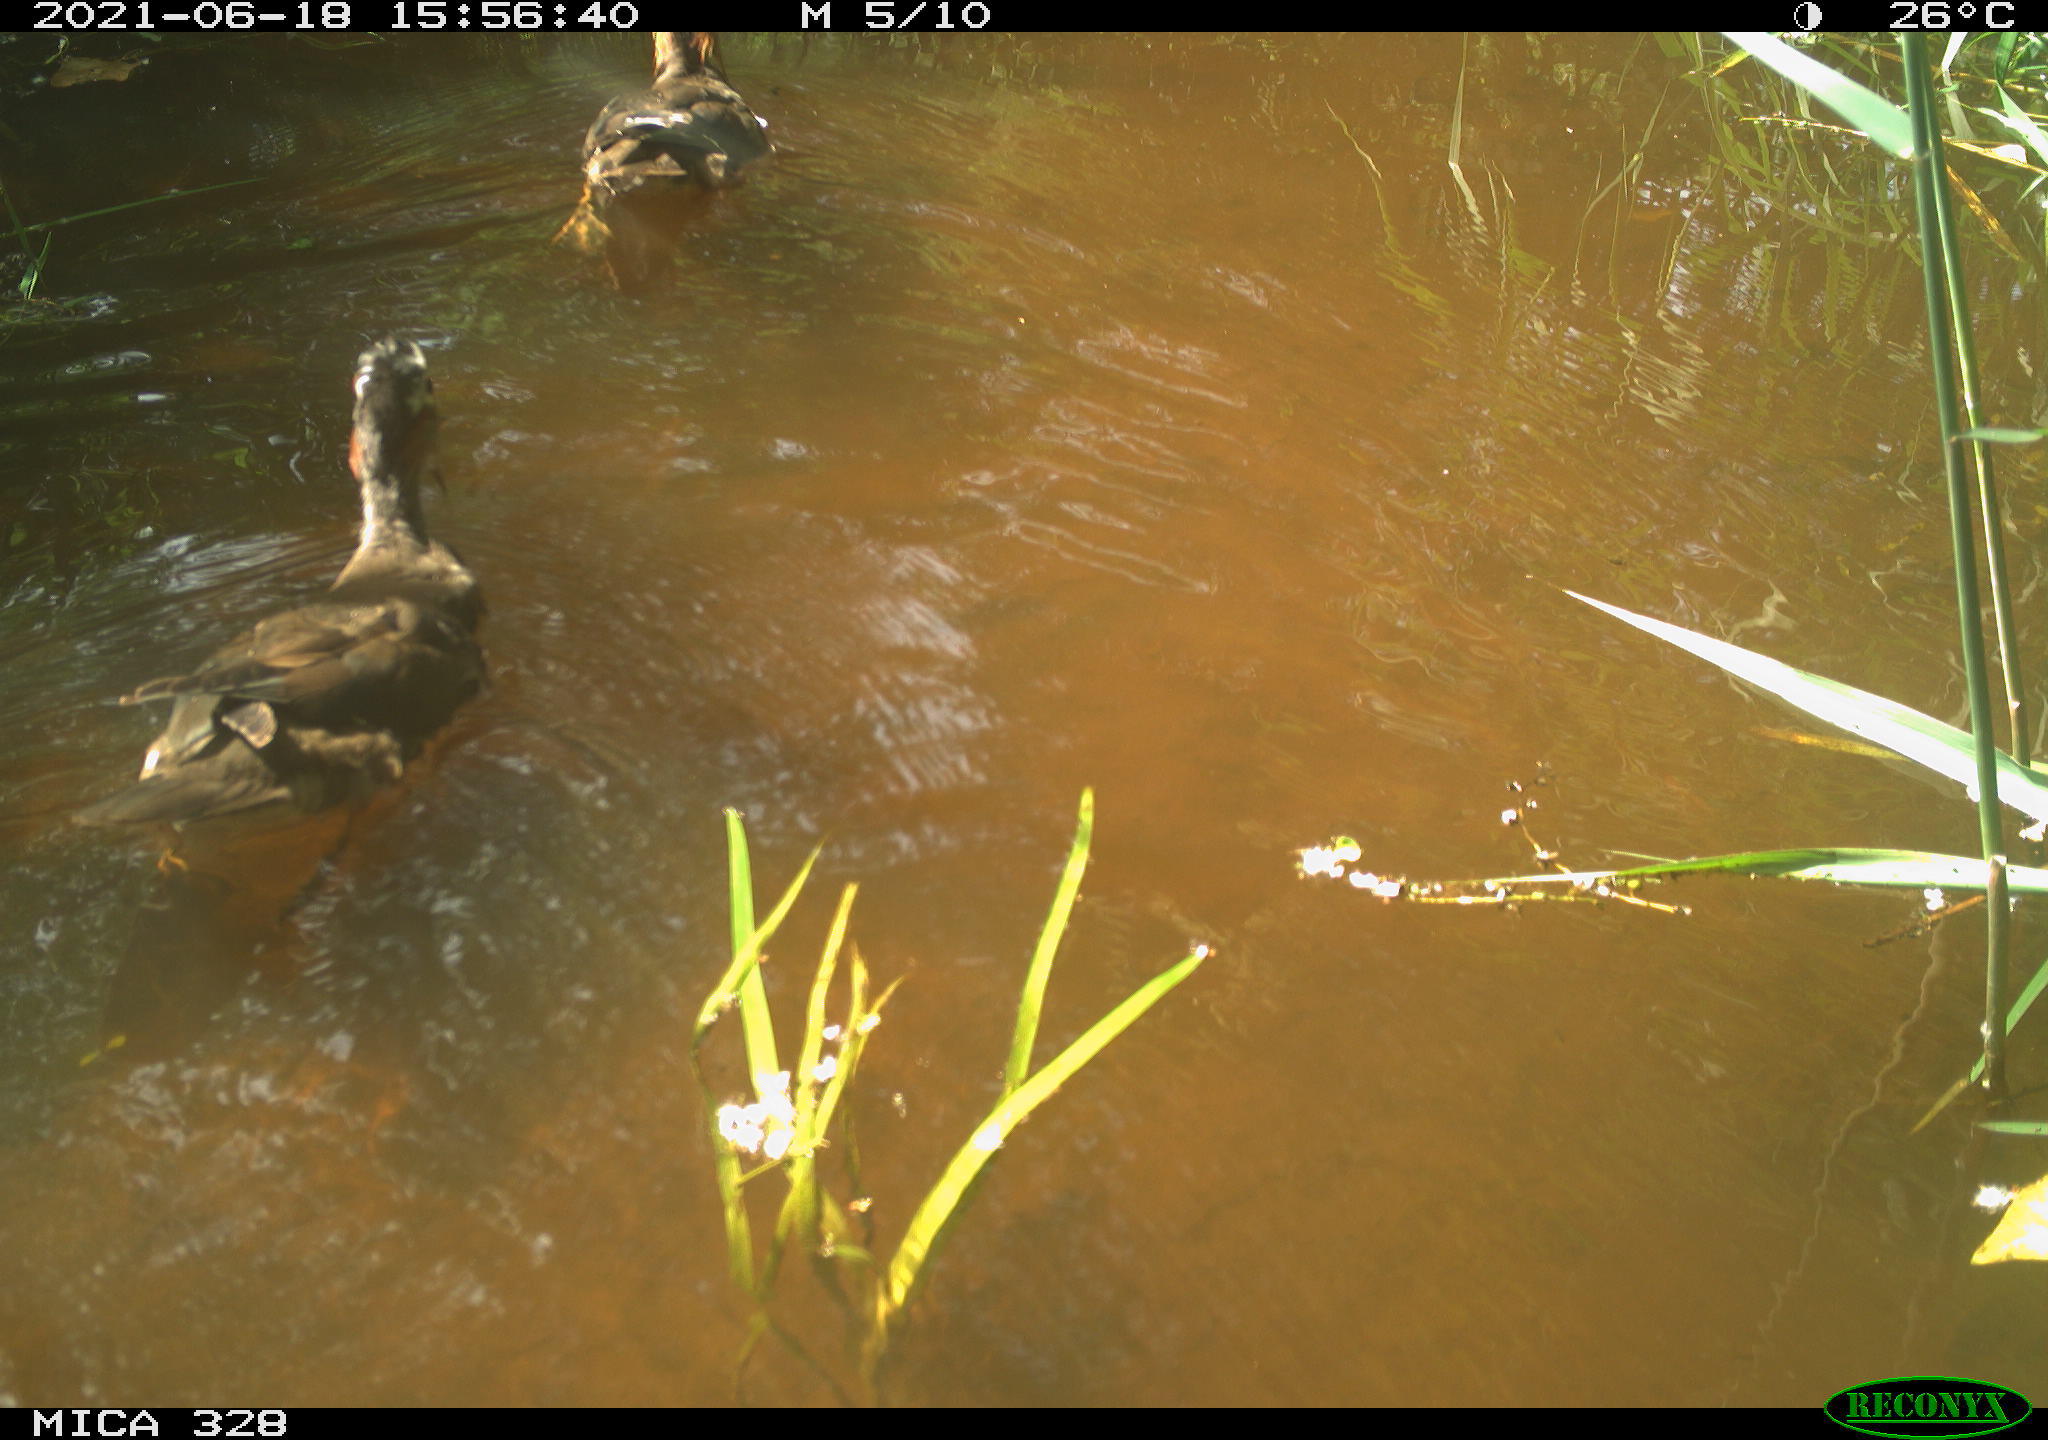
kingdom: Animalia
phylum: Chordata
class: Aves
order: Anseriformes
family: Anatidae
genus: Aix
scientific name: Aix galericulata
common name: Mandarin duck
